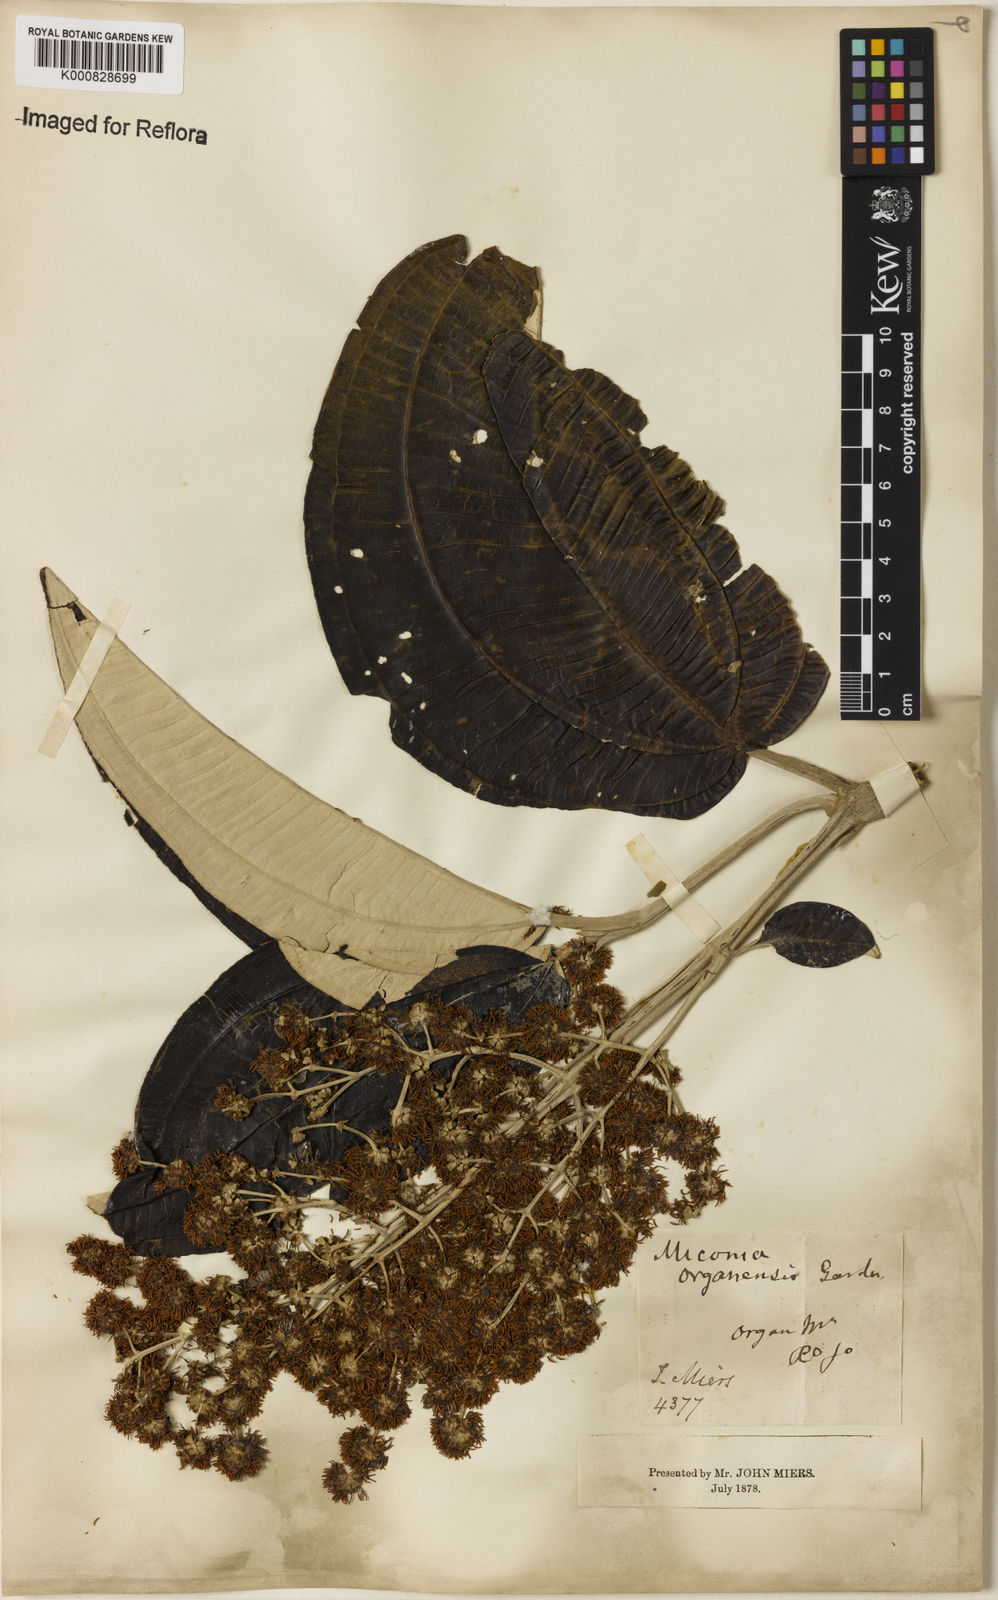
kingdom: Plantae
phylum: Tracheophyta
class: Magnoliopsida
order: Myrtales
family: Melastomataceae
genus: Miconia
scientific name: Miconia organensis
